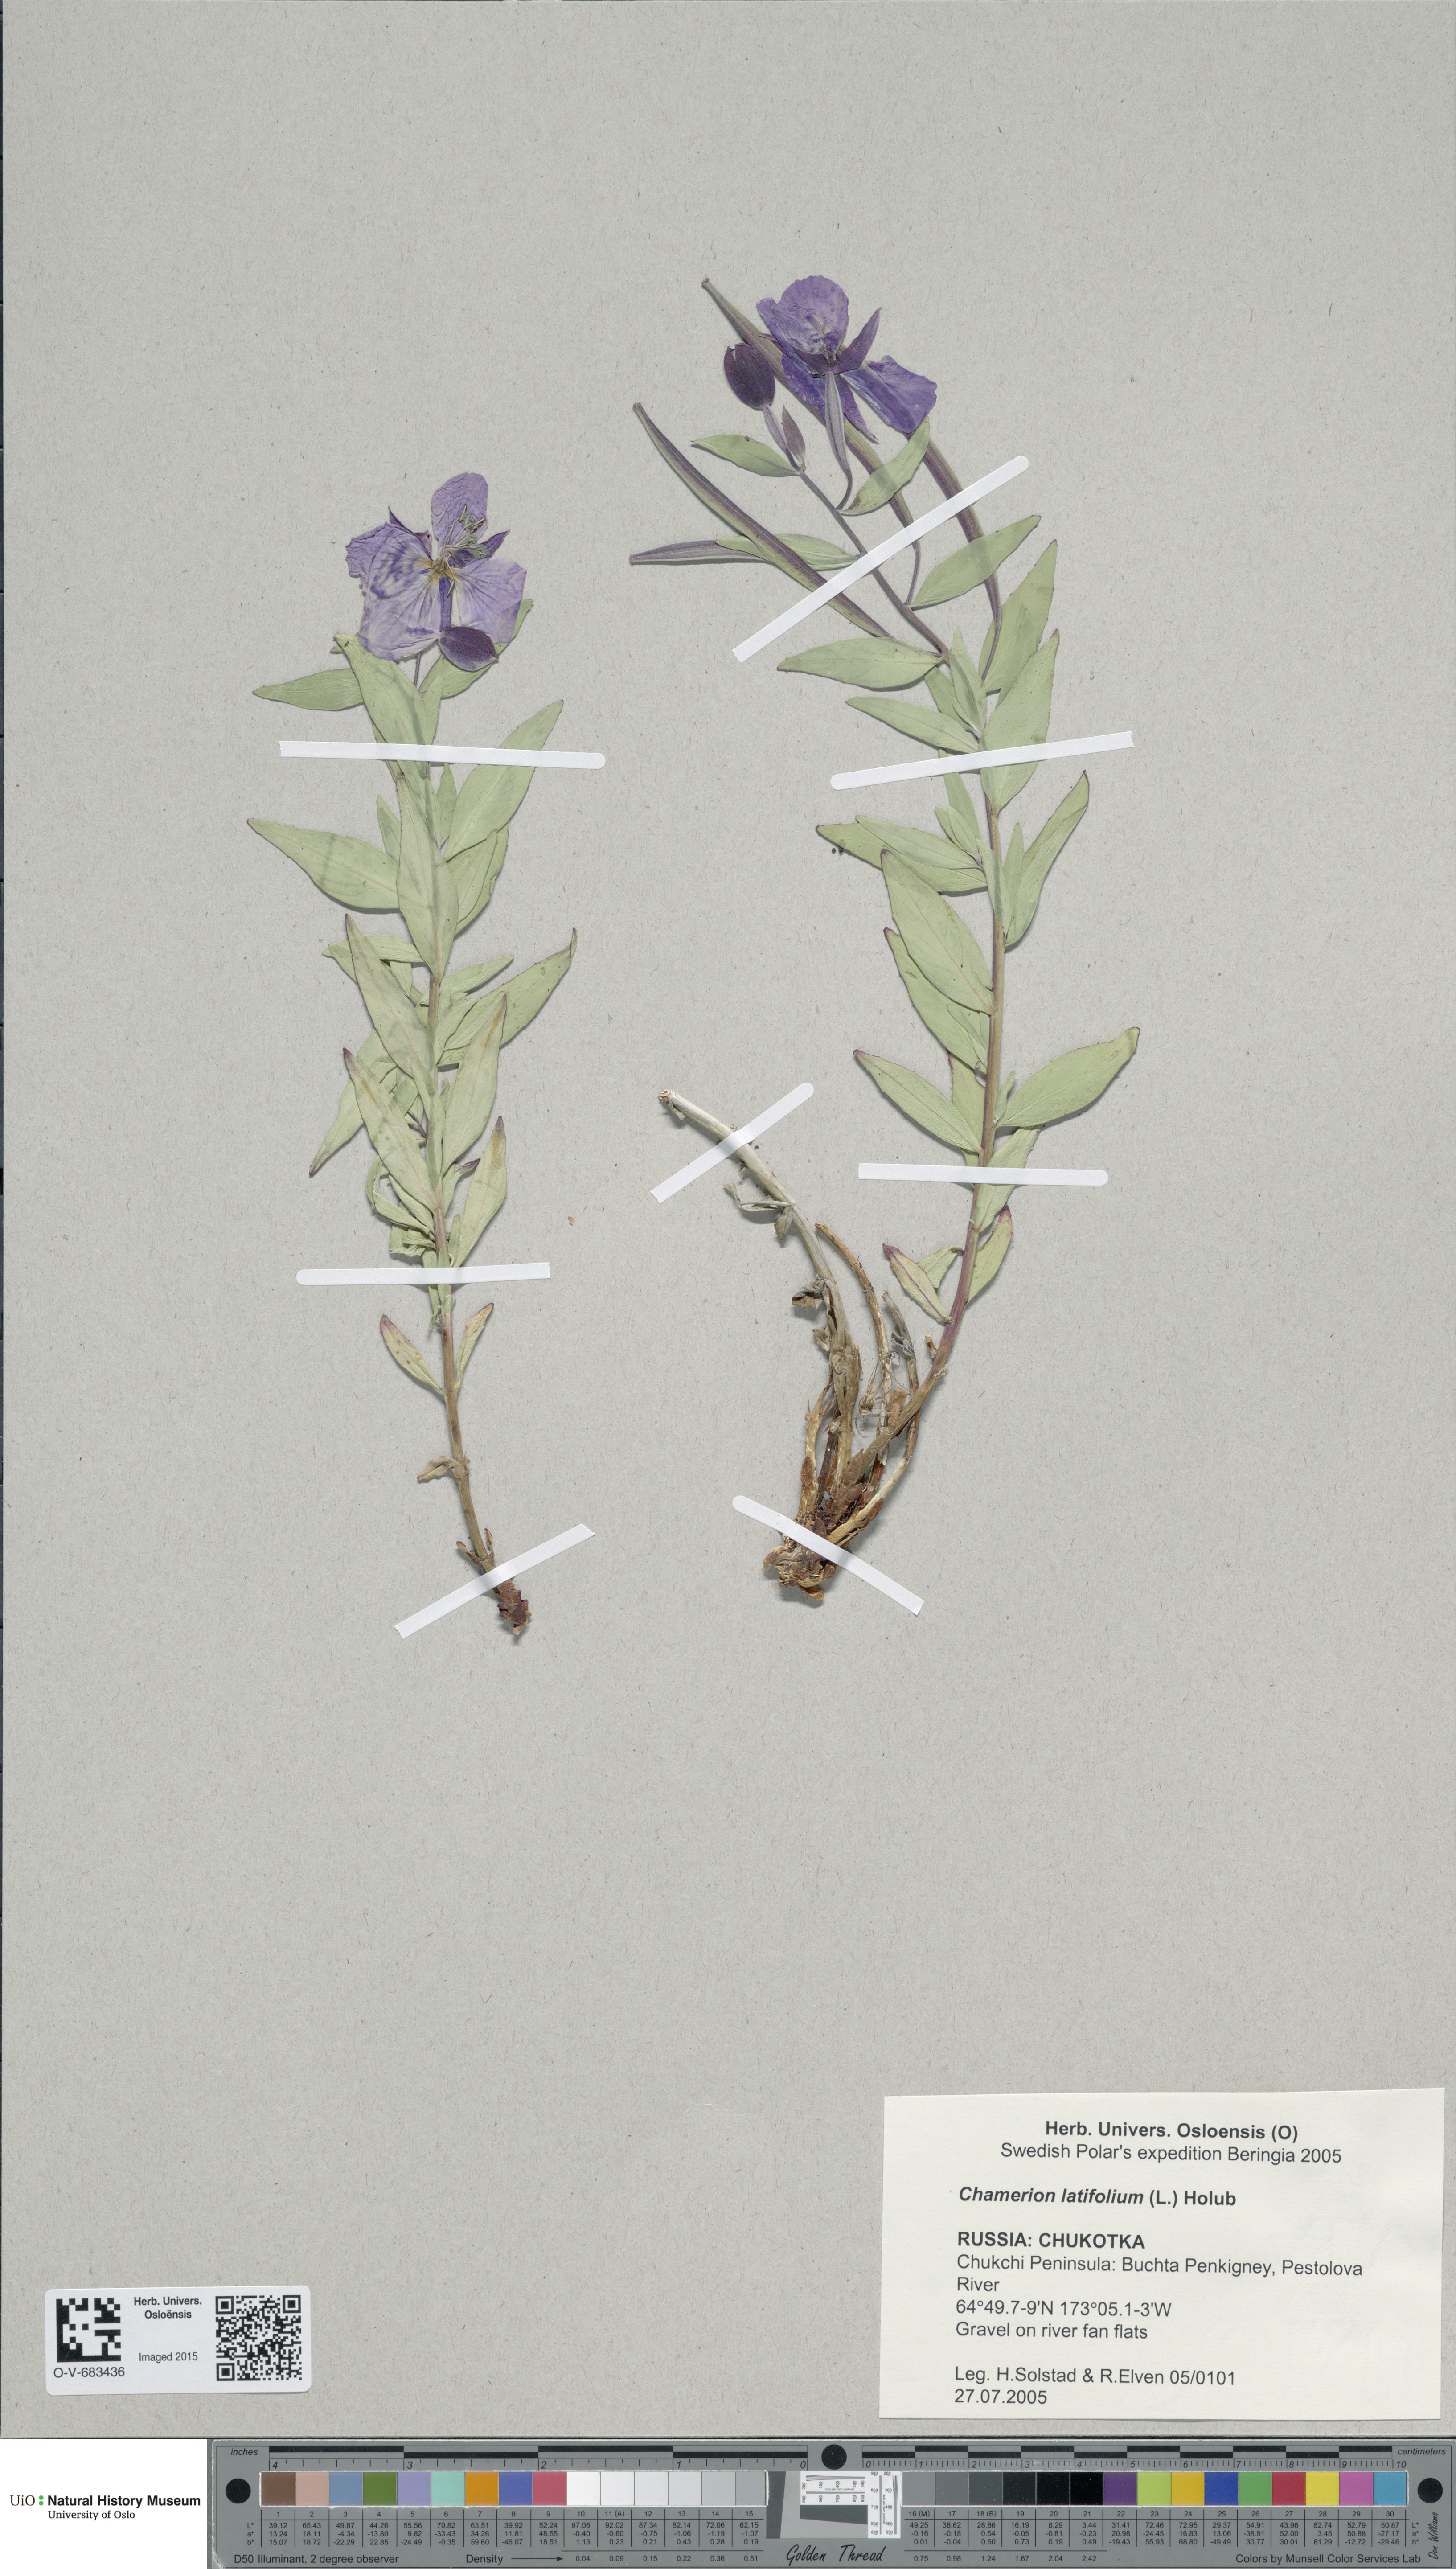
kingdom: Plantae
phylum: Tracheophyta
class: Magnoliopsida
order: Myrtales
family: Onagraceae
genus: Chamaenerion
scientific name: Chamaenerion latifolium
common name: Dwarf fireweed
